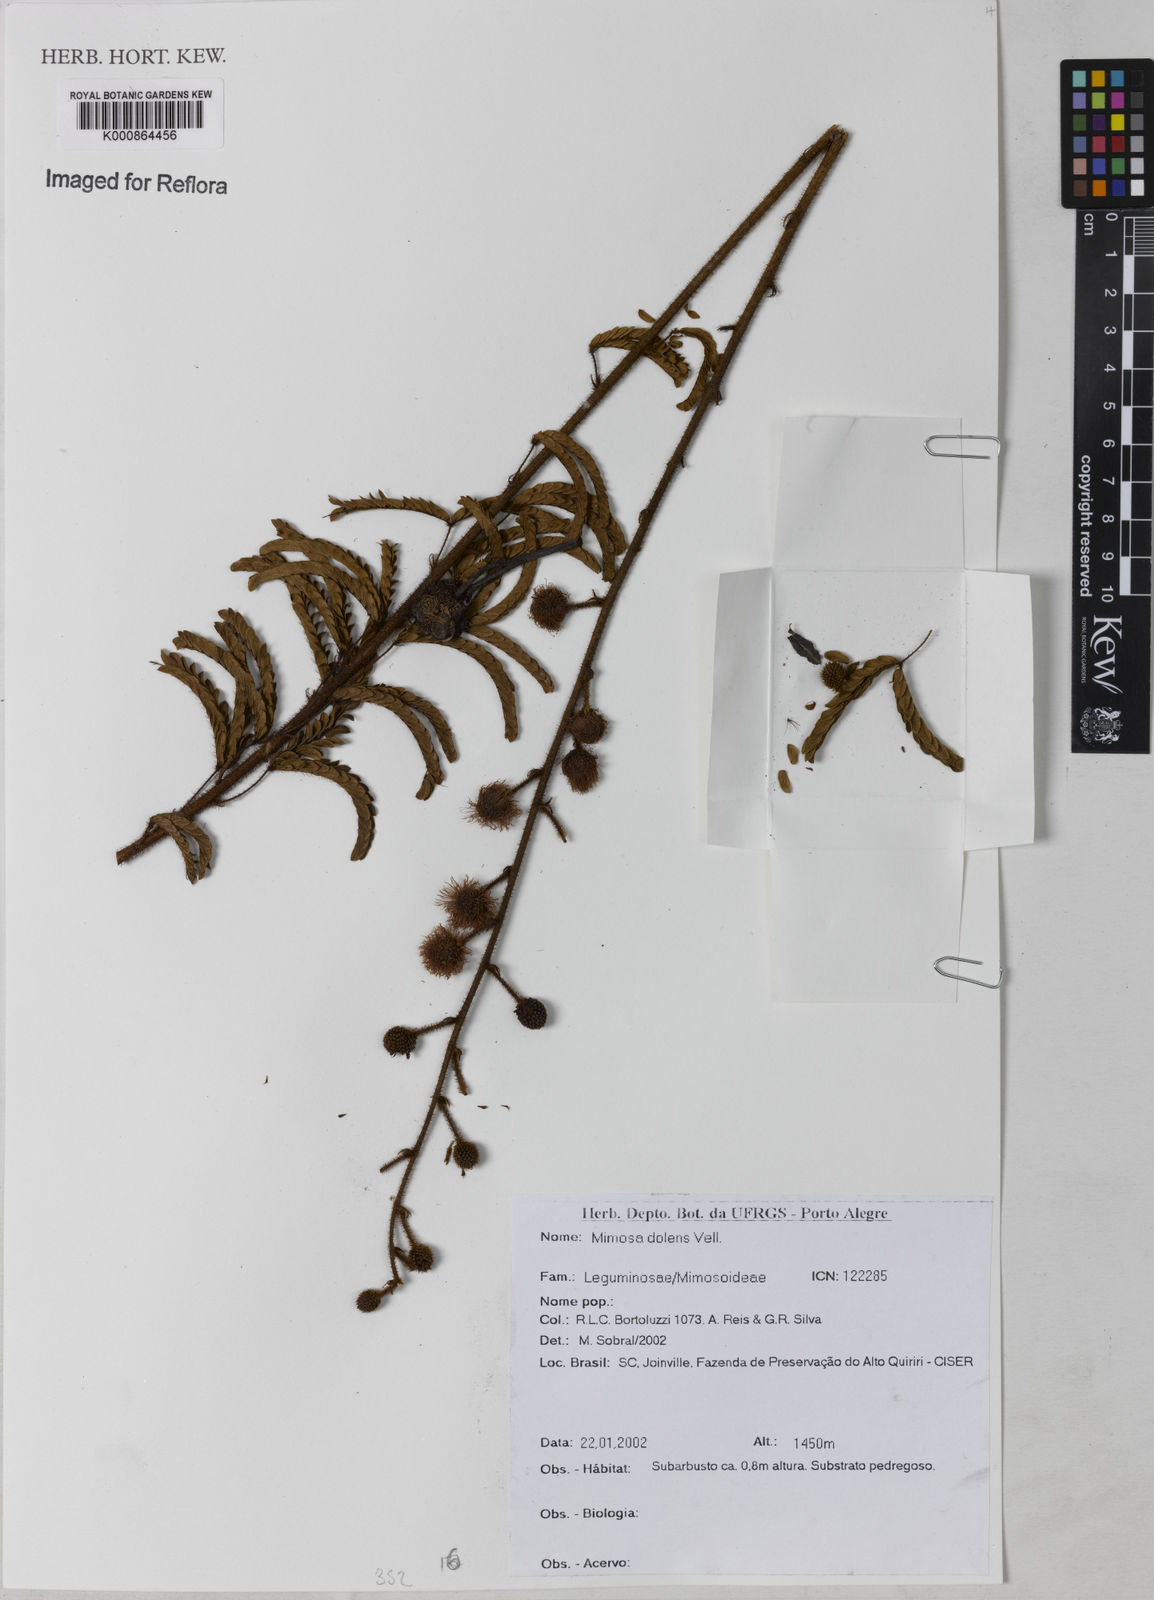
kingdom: Plantae
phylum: Tracheophyta
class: Magnoliopsida
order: Fabales
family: Fabaceae
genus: Mimosa
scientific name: Mimosa dolens
